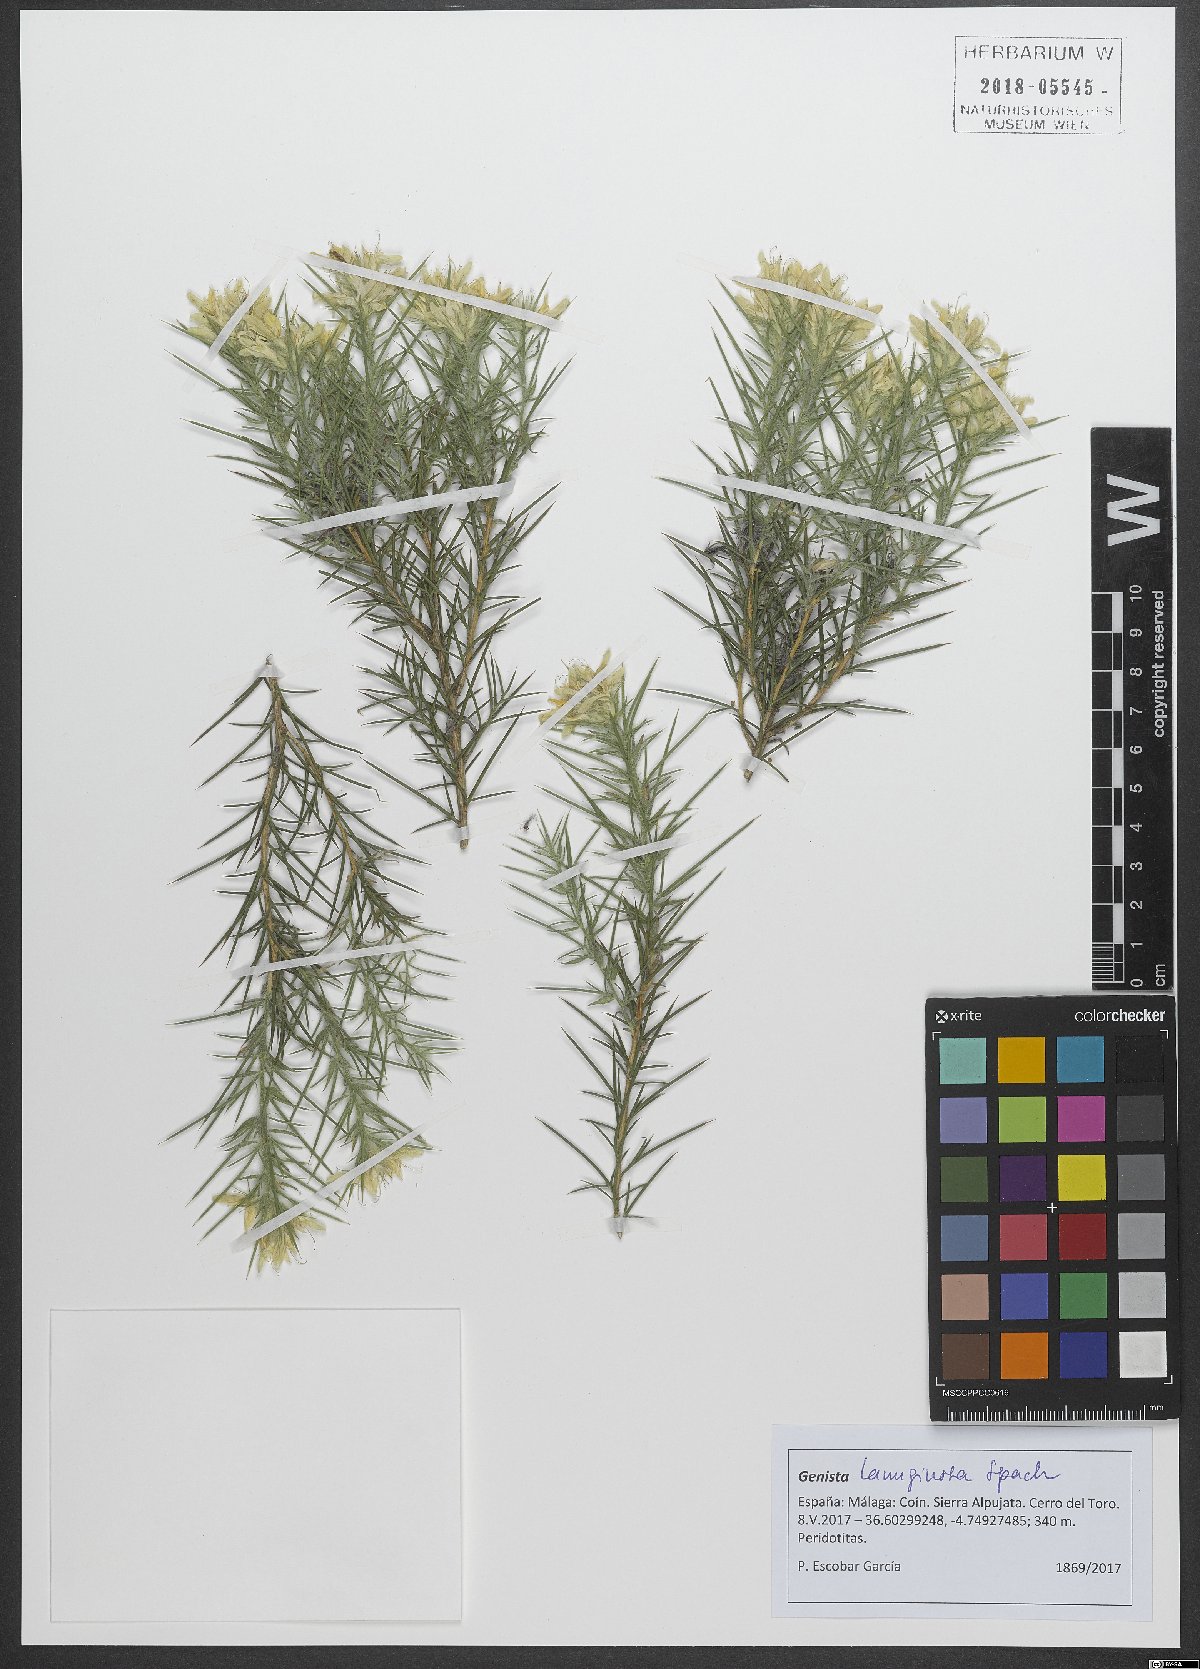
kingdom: Plantae
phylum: Tracheophyta
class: Magnoliopsida
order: Fabales
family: Fabaceae
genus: Genista
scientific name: Genista hirsuta
